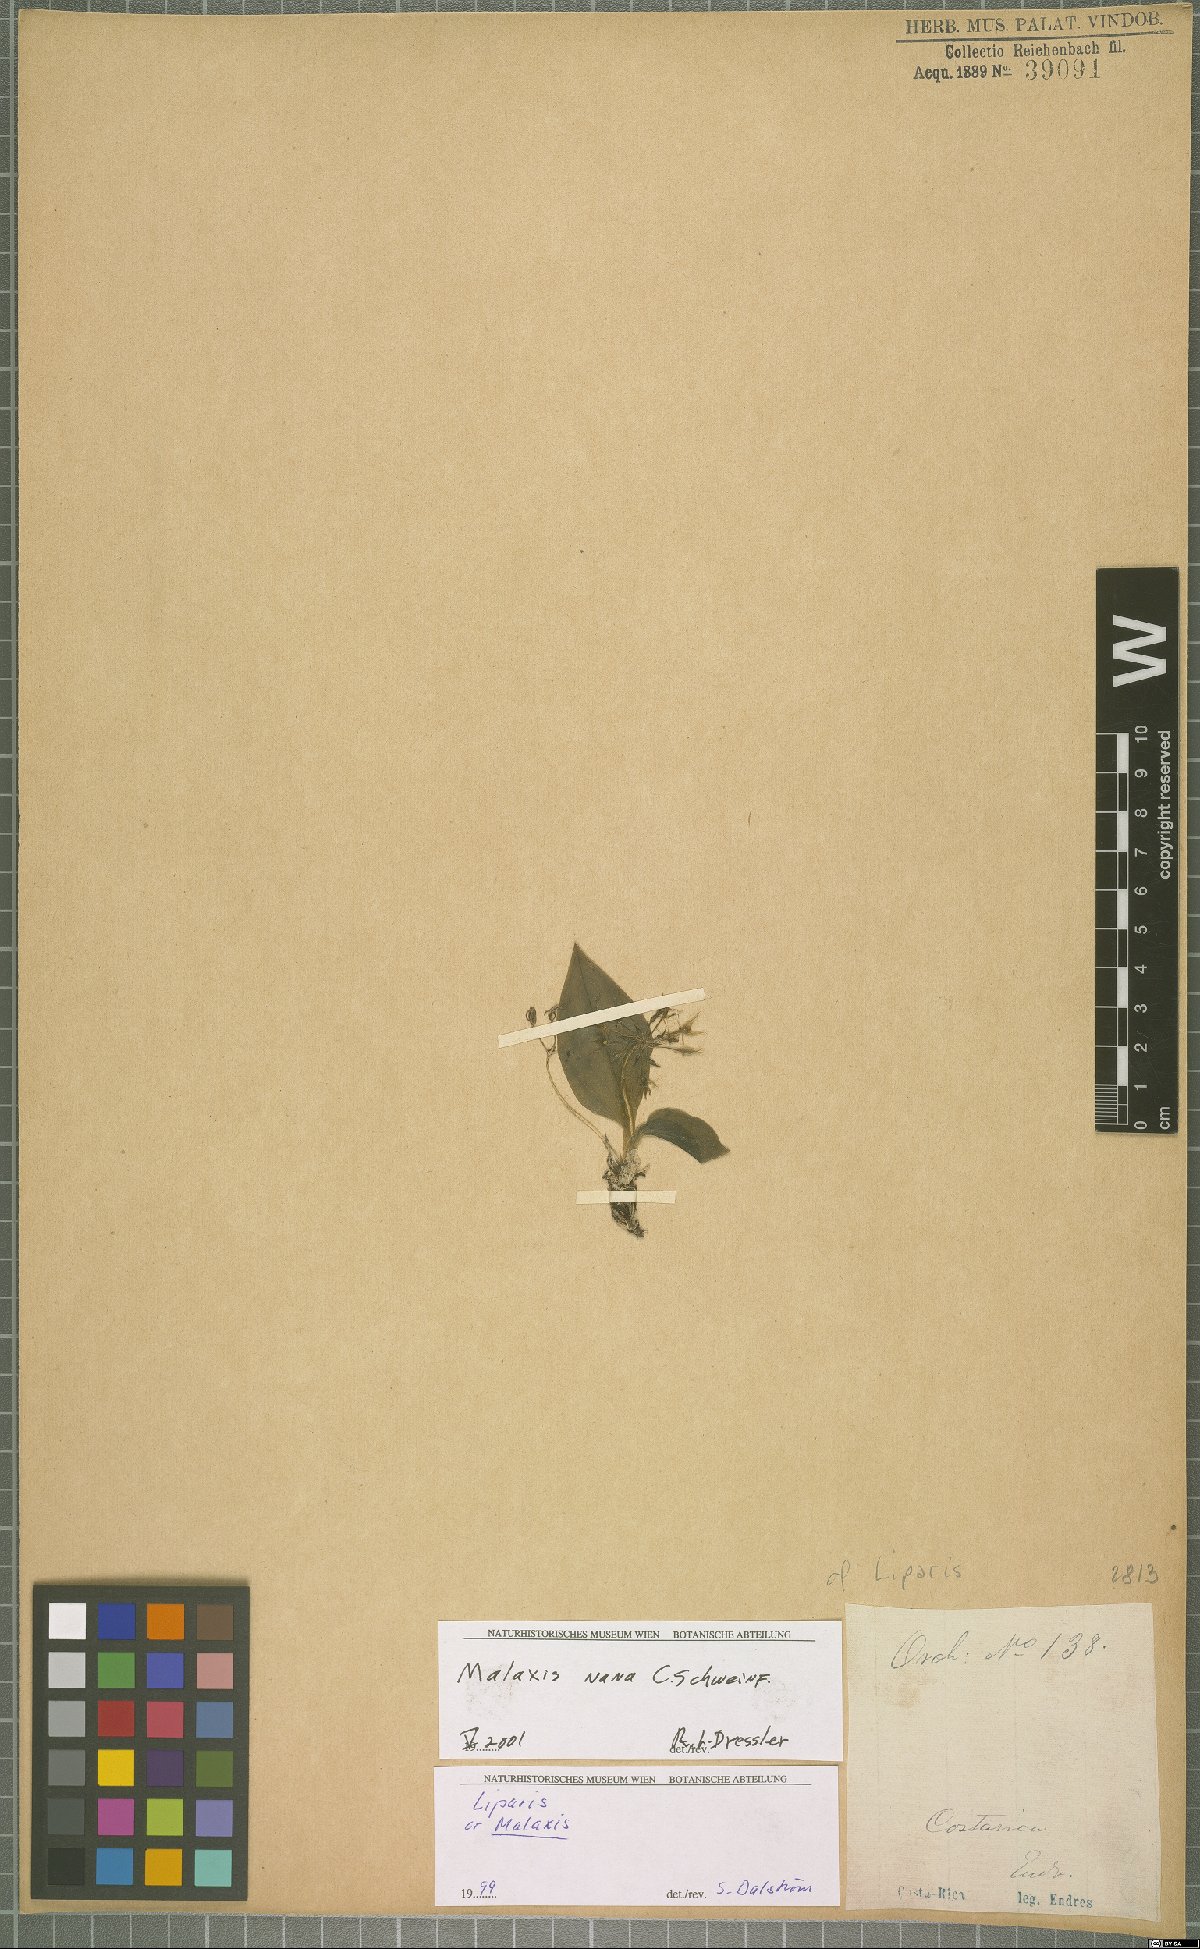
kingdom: Plantae
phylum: Tracheophyta
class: Liliopsida
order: Asparagales
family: Orchidaceae
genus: Malaxis
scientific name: Malaxis nana
